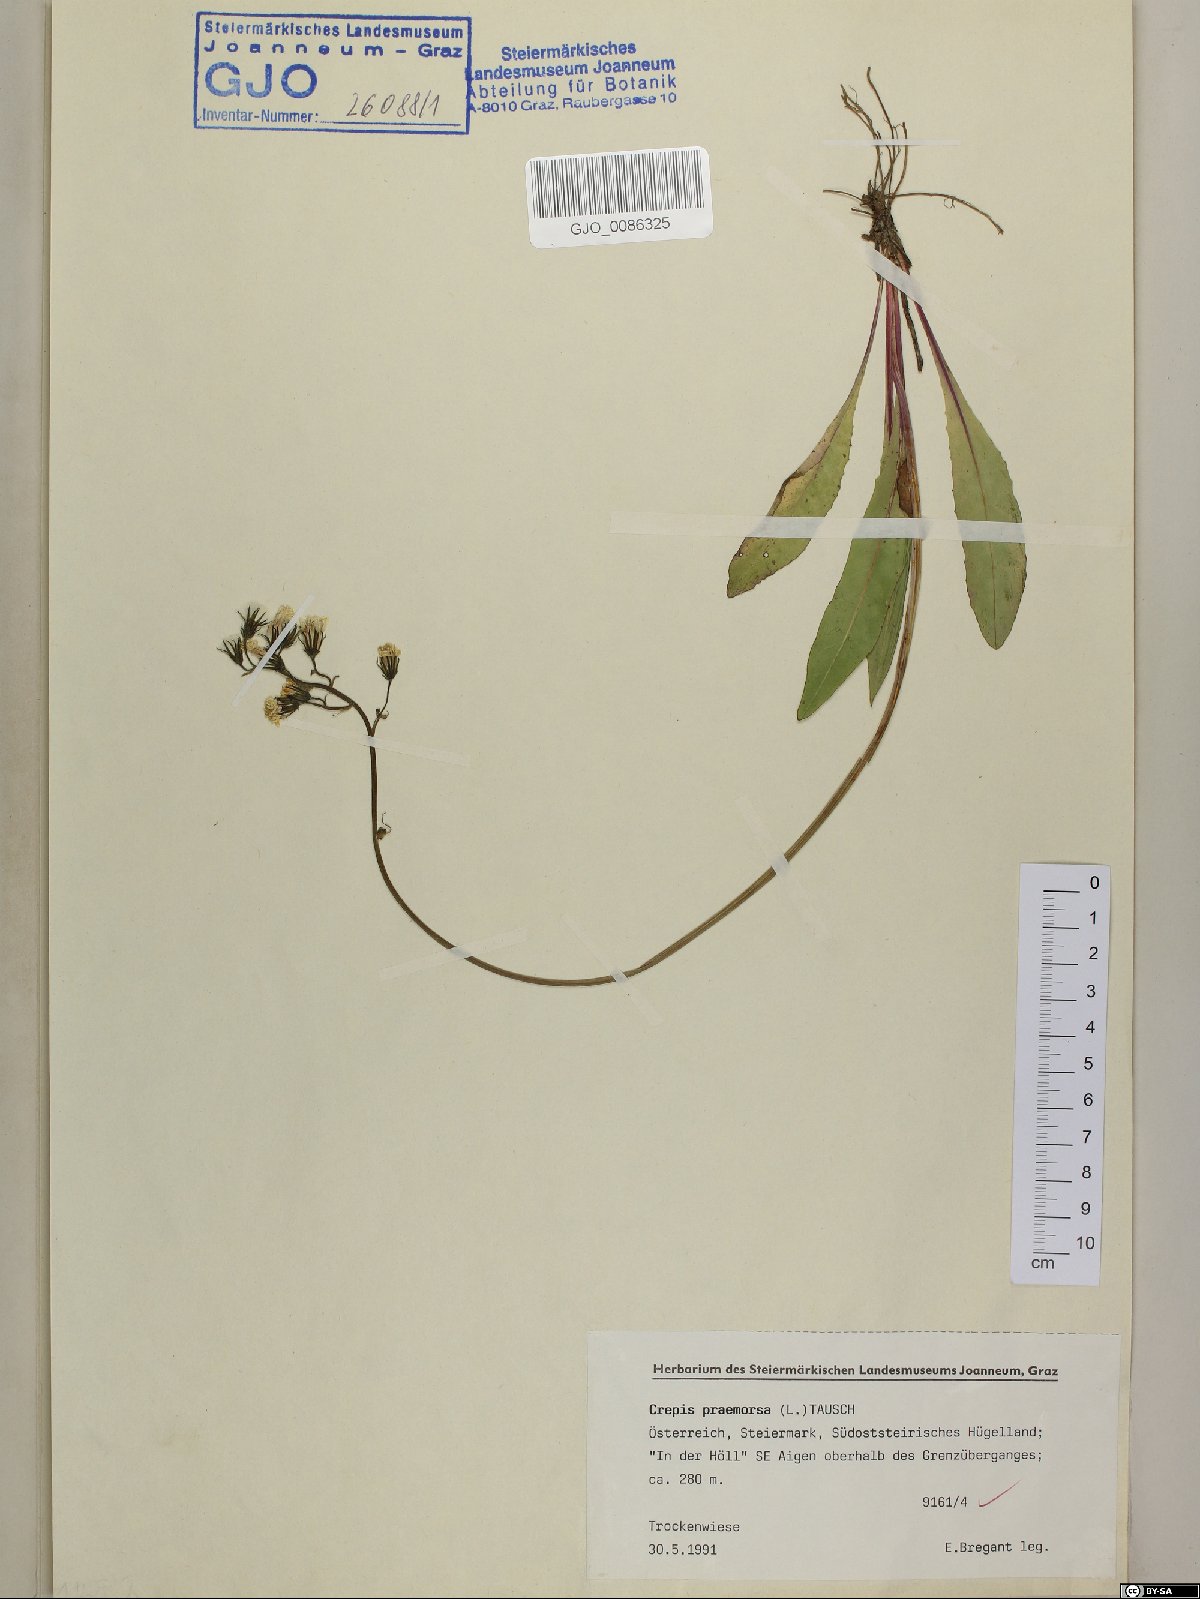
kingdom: Plantae
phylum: Tracheophyta
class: Magnoliopsida
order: Asterales
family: Asteraceae
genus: Crepis
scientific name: Crepis praemorsa
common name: Leafless hawk's-beard
